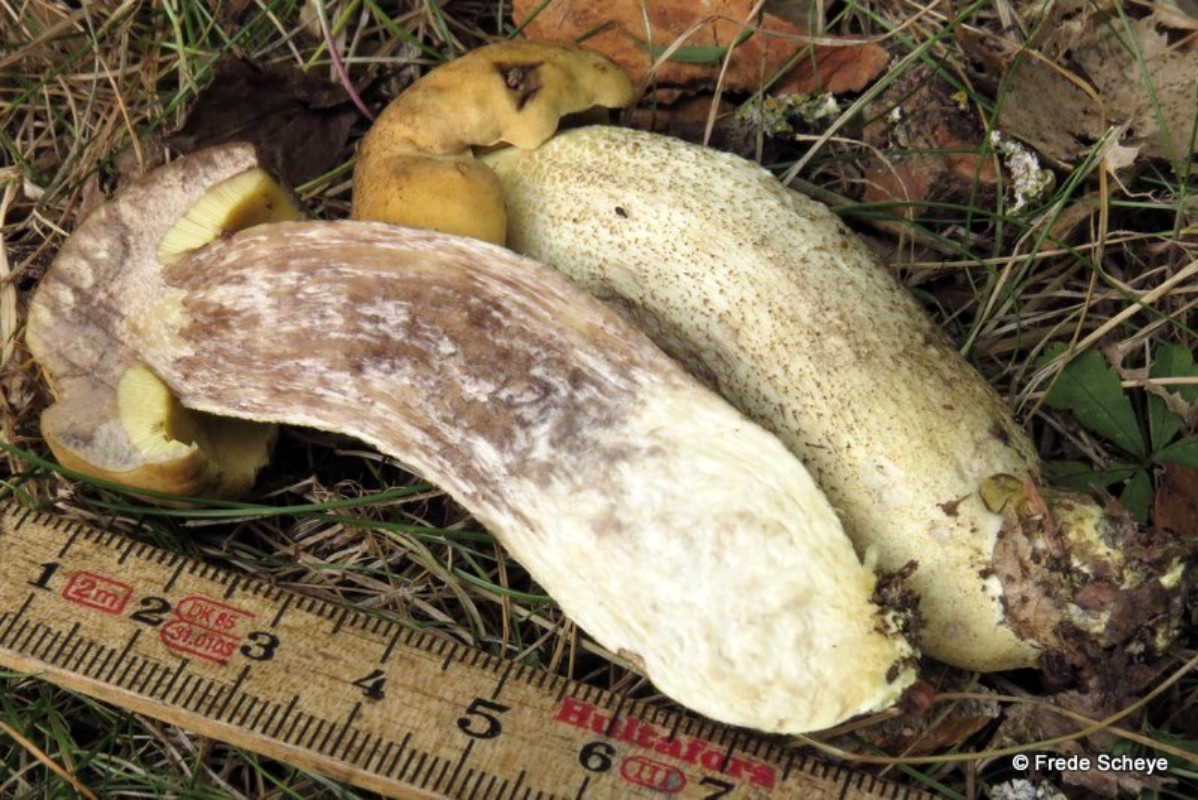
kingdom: Fungi
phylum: Basidiomycota
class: Agaricomycetes
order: Boletales
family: Boletaceae
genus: Leccinellum
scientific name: Leccinellum crocipodium
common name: gul skælrørhat
